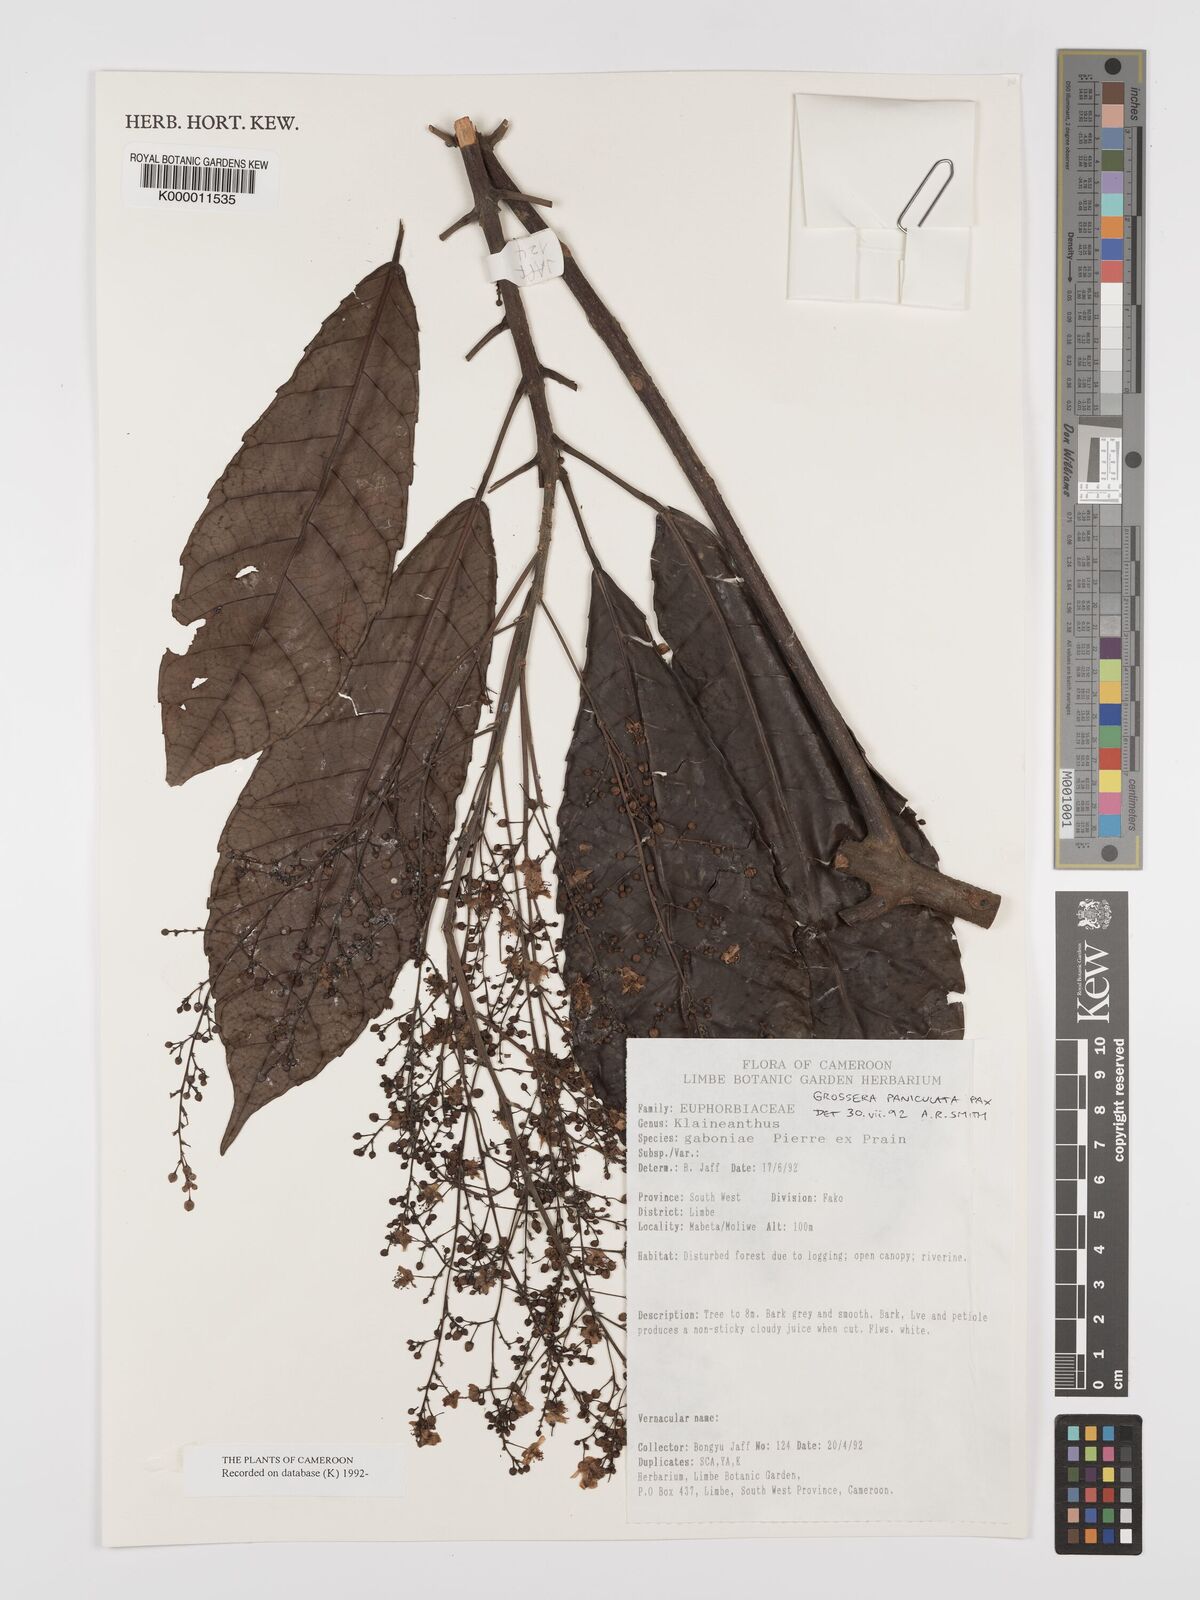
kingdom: Plantae
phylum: Tracheophyta
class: Magnoliopsida
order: Malpighiales
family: Euphorbiaceae
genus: Grossera
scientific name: Grossera paniculata
